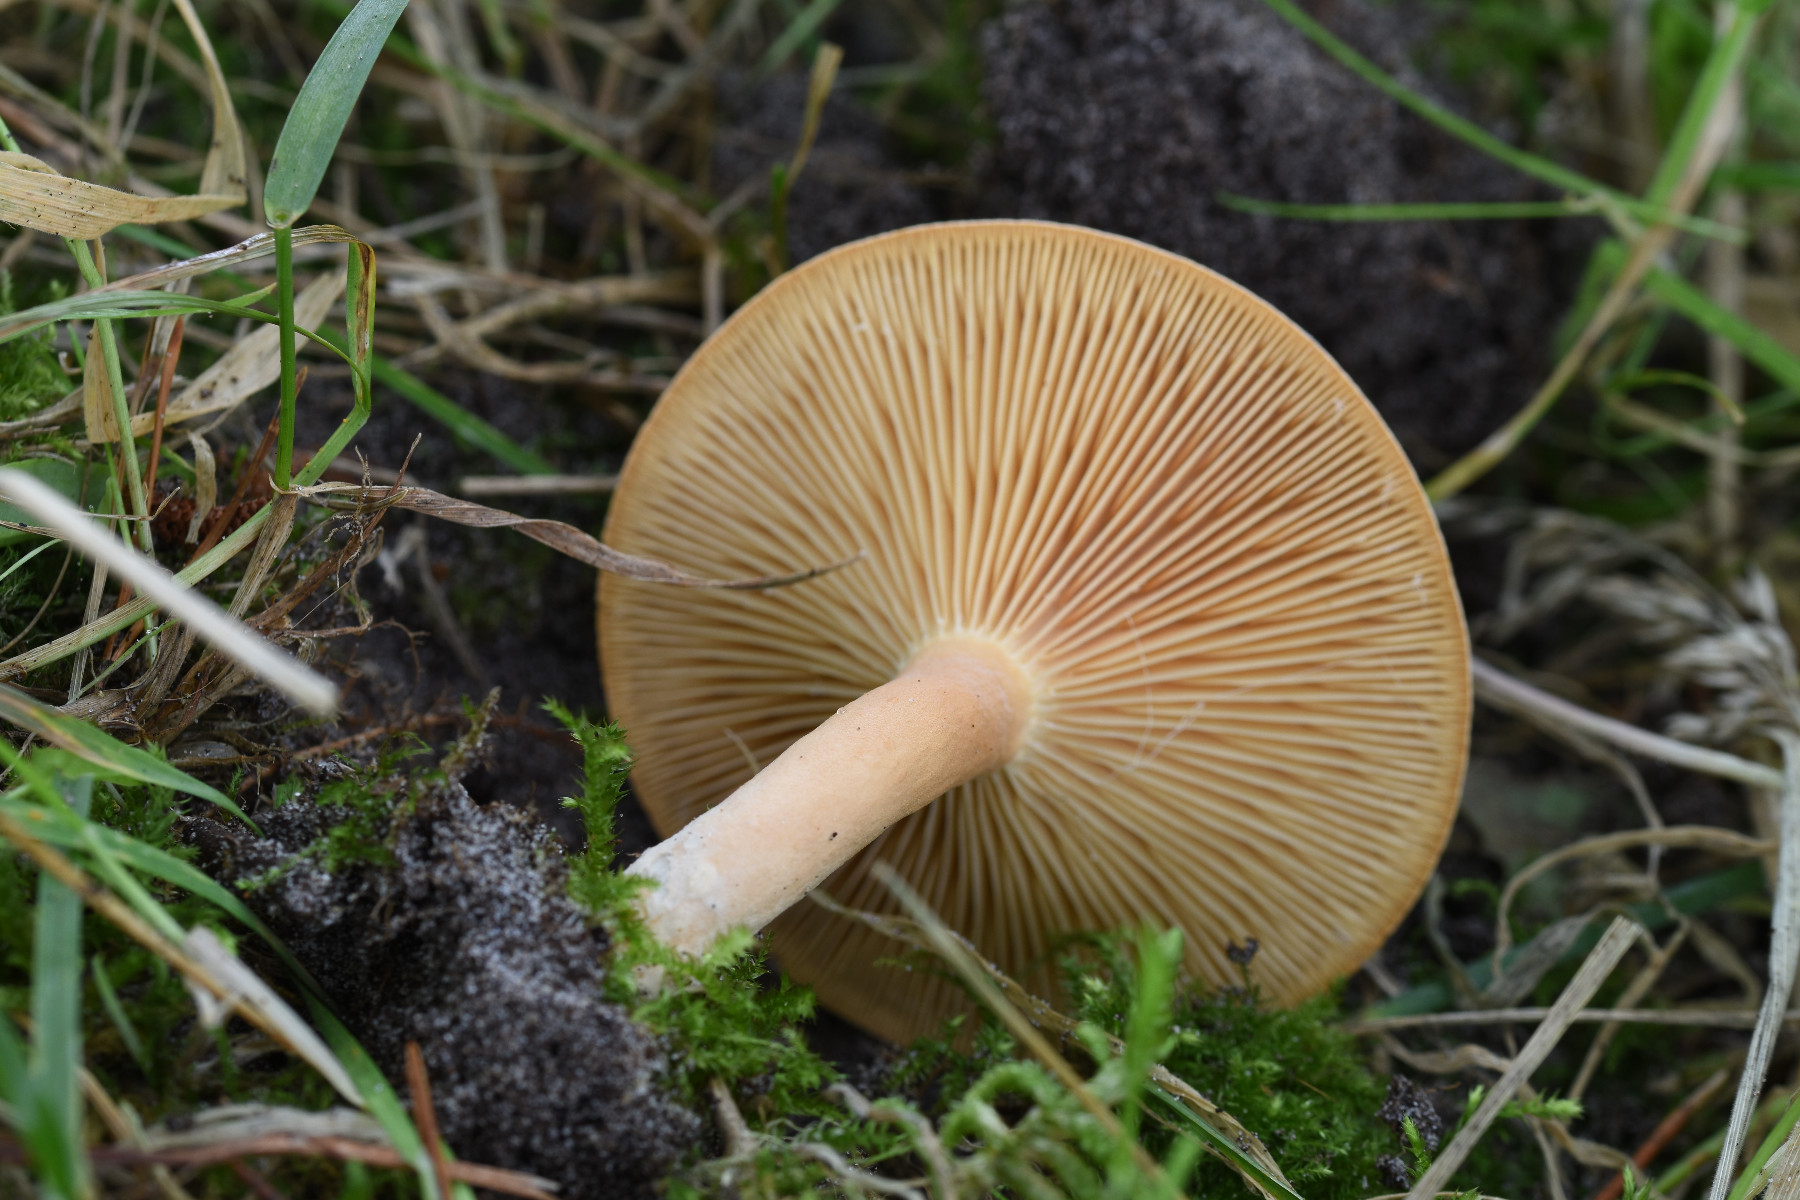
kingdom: Fungi
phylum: Basidiomycota
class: Agaricomycetes
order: Russulales
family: Russulaceae
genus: Lactarius
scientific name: Lactarius helvus
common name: mose-mælkehat
